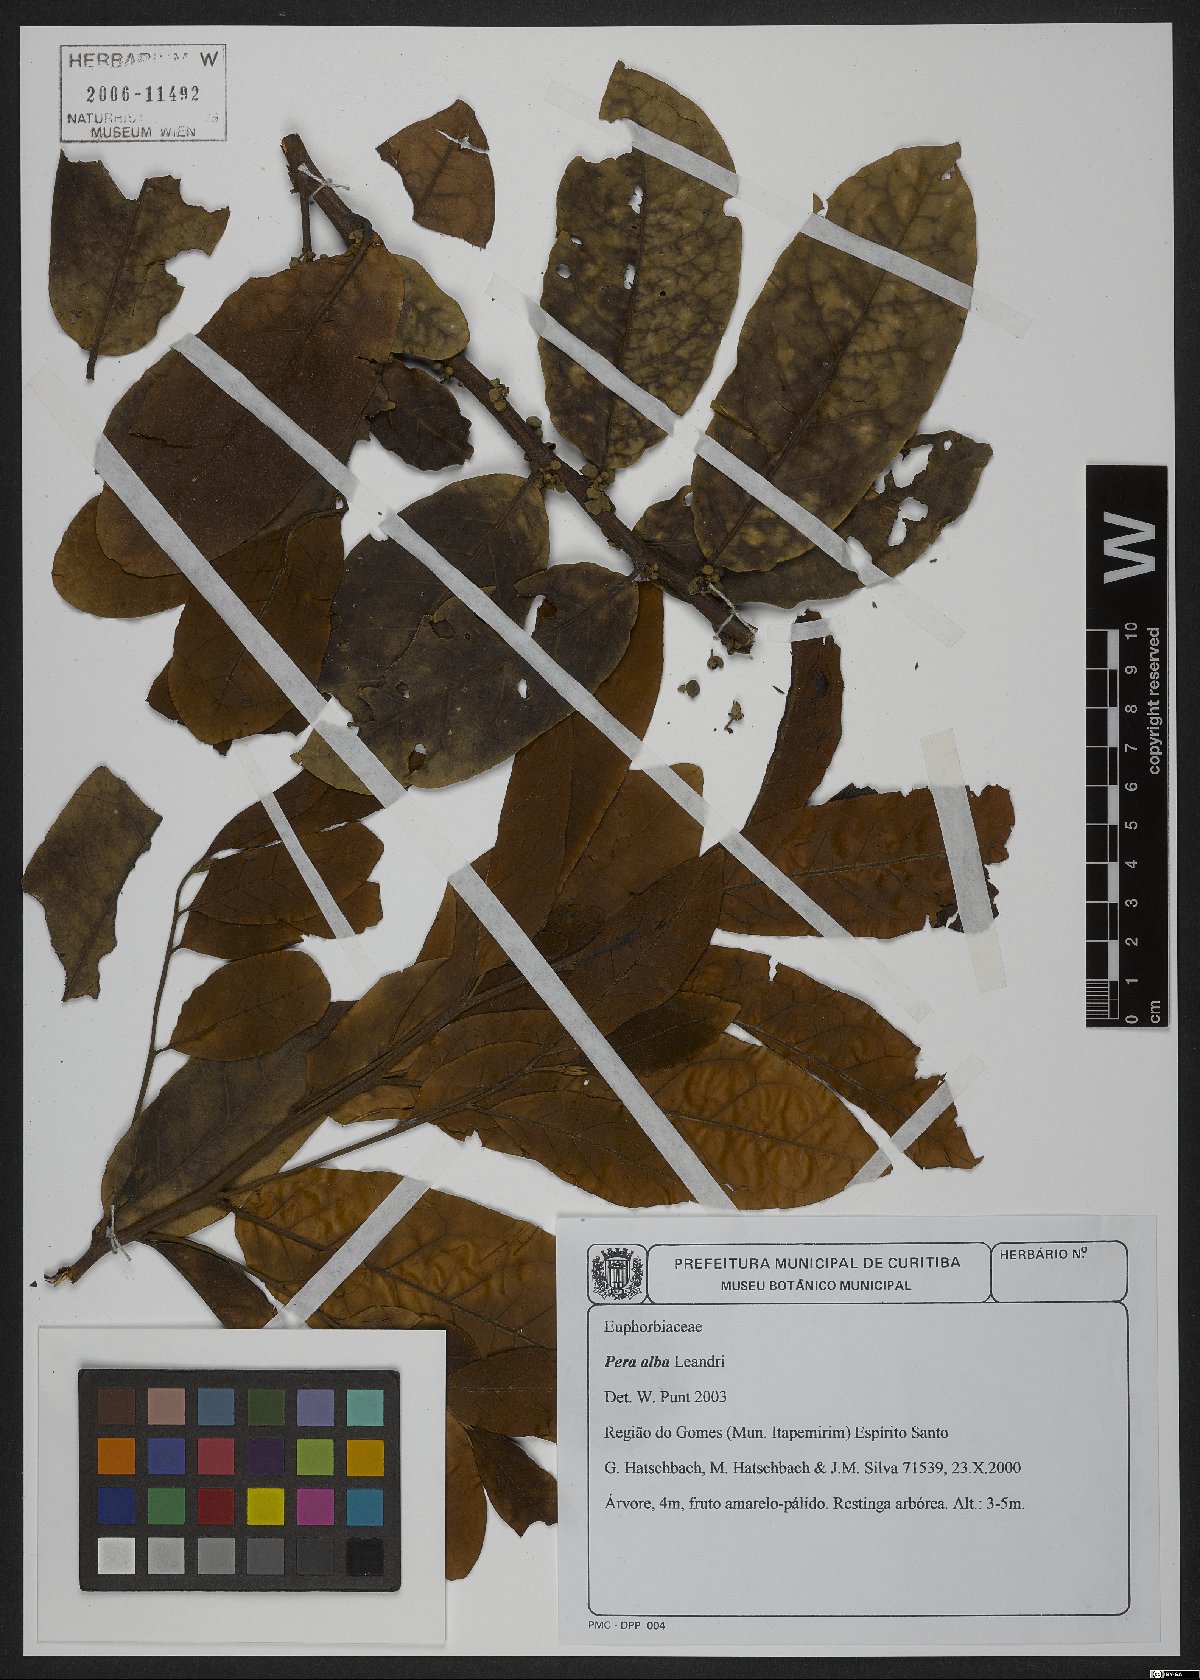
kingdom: Plantae
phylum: Tracheophyta
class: Magnoliopsida
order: Malpighiales
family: Peraceae
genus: Pera
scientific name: Pera heteranthera
